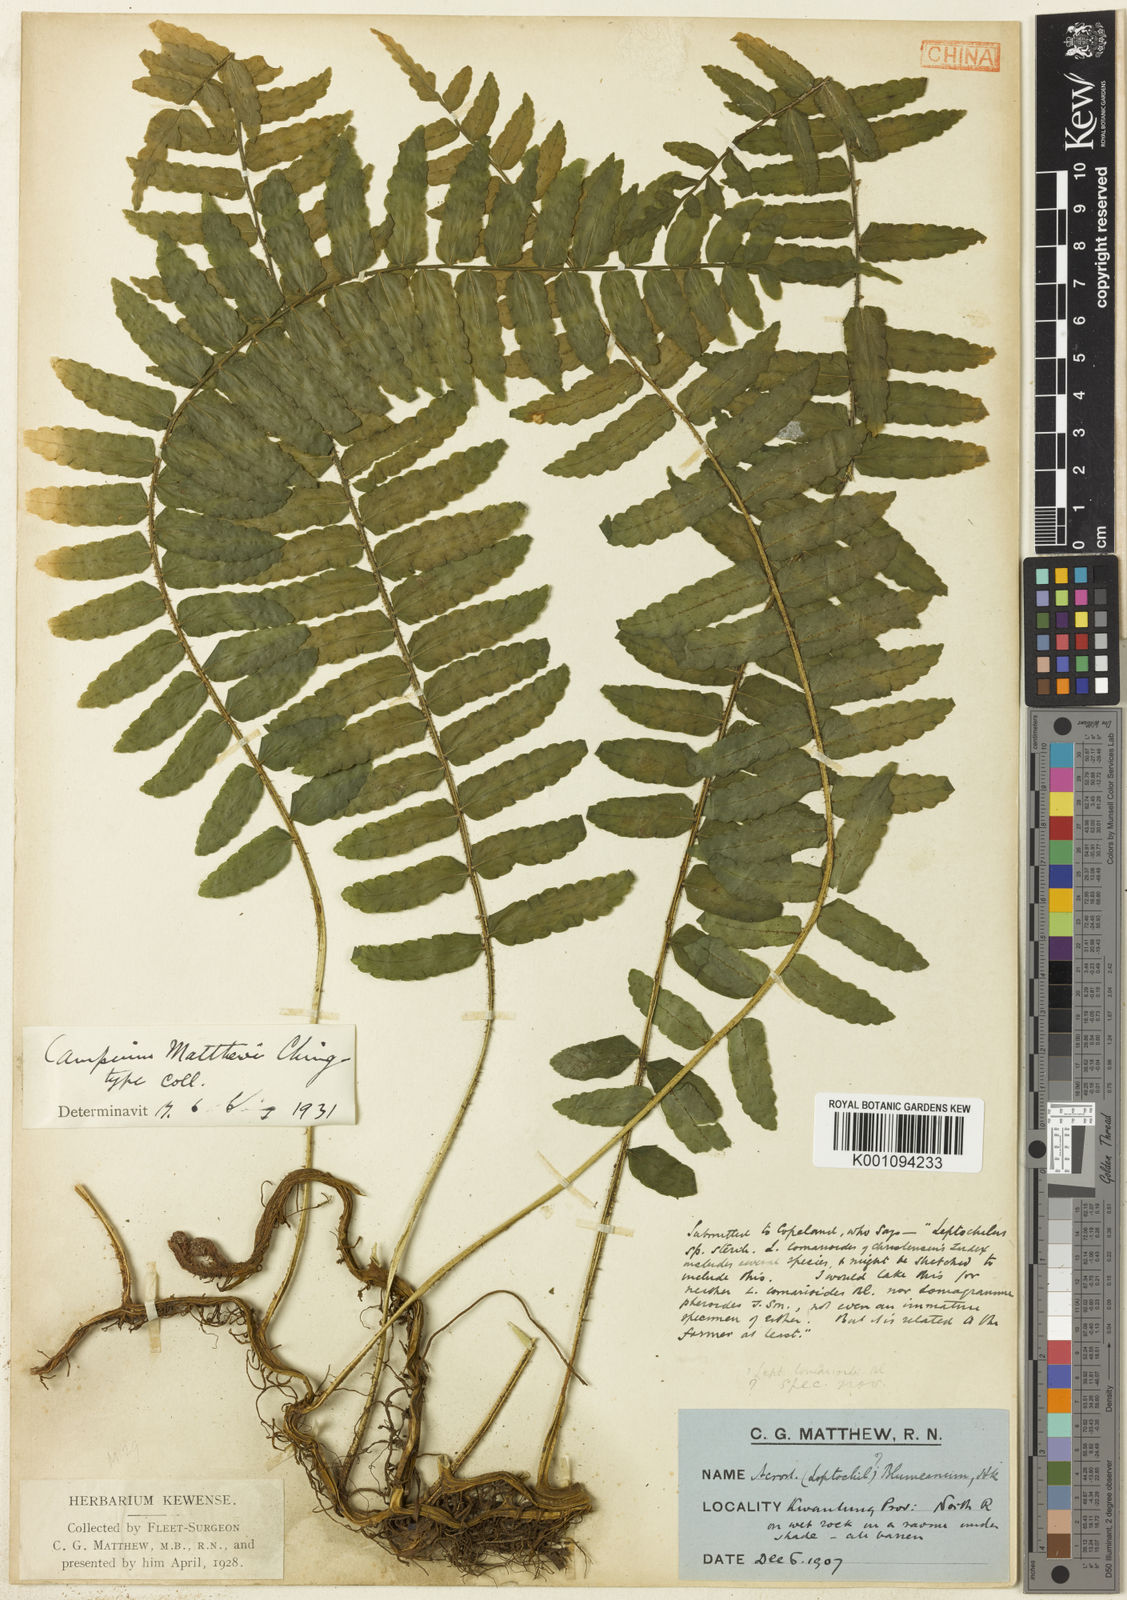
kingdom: Plantae
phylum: Tracheophyta
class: Polypodiopsida
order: Polypodiales
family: Dryopteridaceae
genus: Lomagramma
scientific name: Lomagramma sorbifolia
